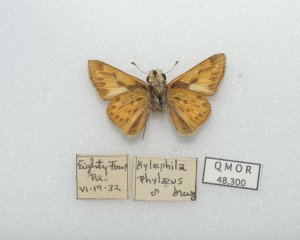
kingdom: Animalia
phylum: Arthropoda
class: Insecta
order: Lepidoptera
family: Hesperiidae
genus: Hylephila
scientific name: Hylephila phyleus
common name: Fiery Skipper
